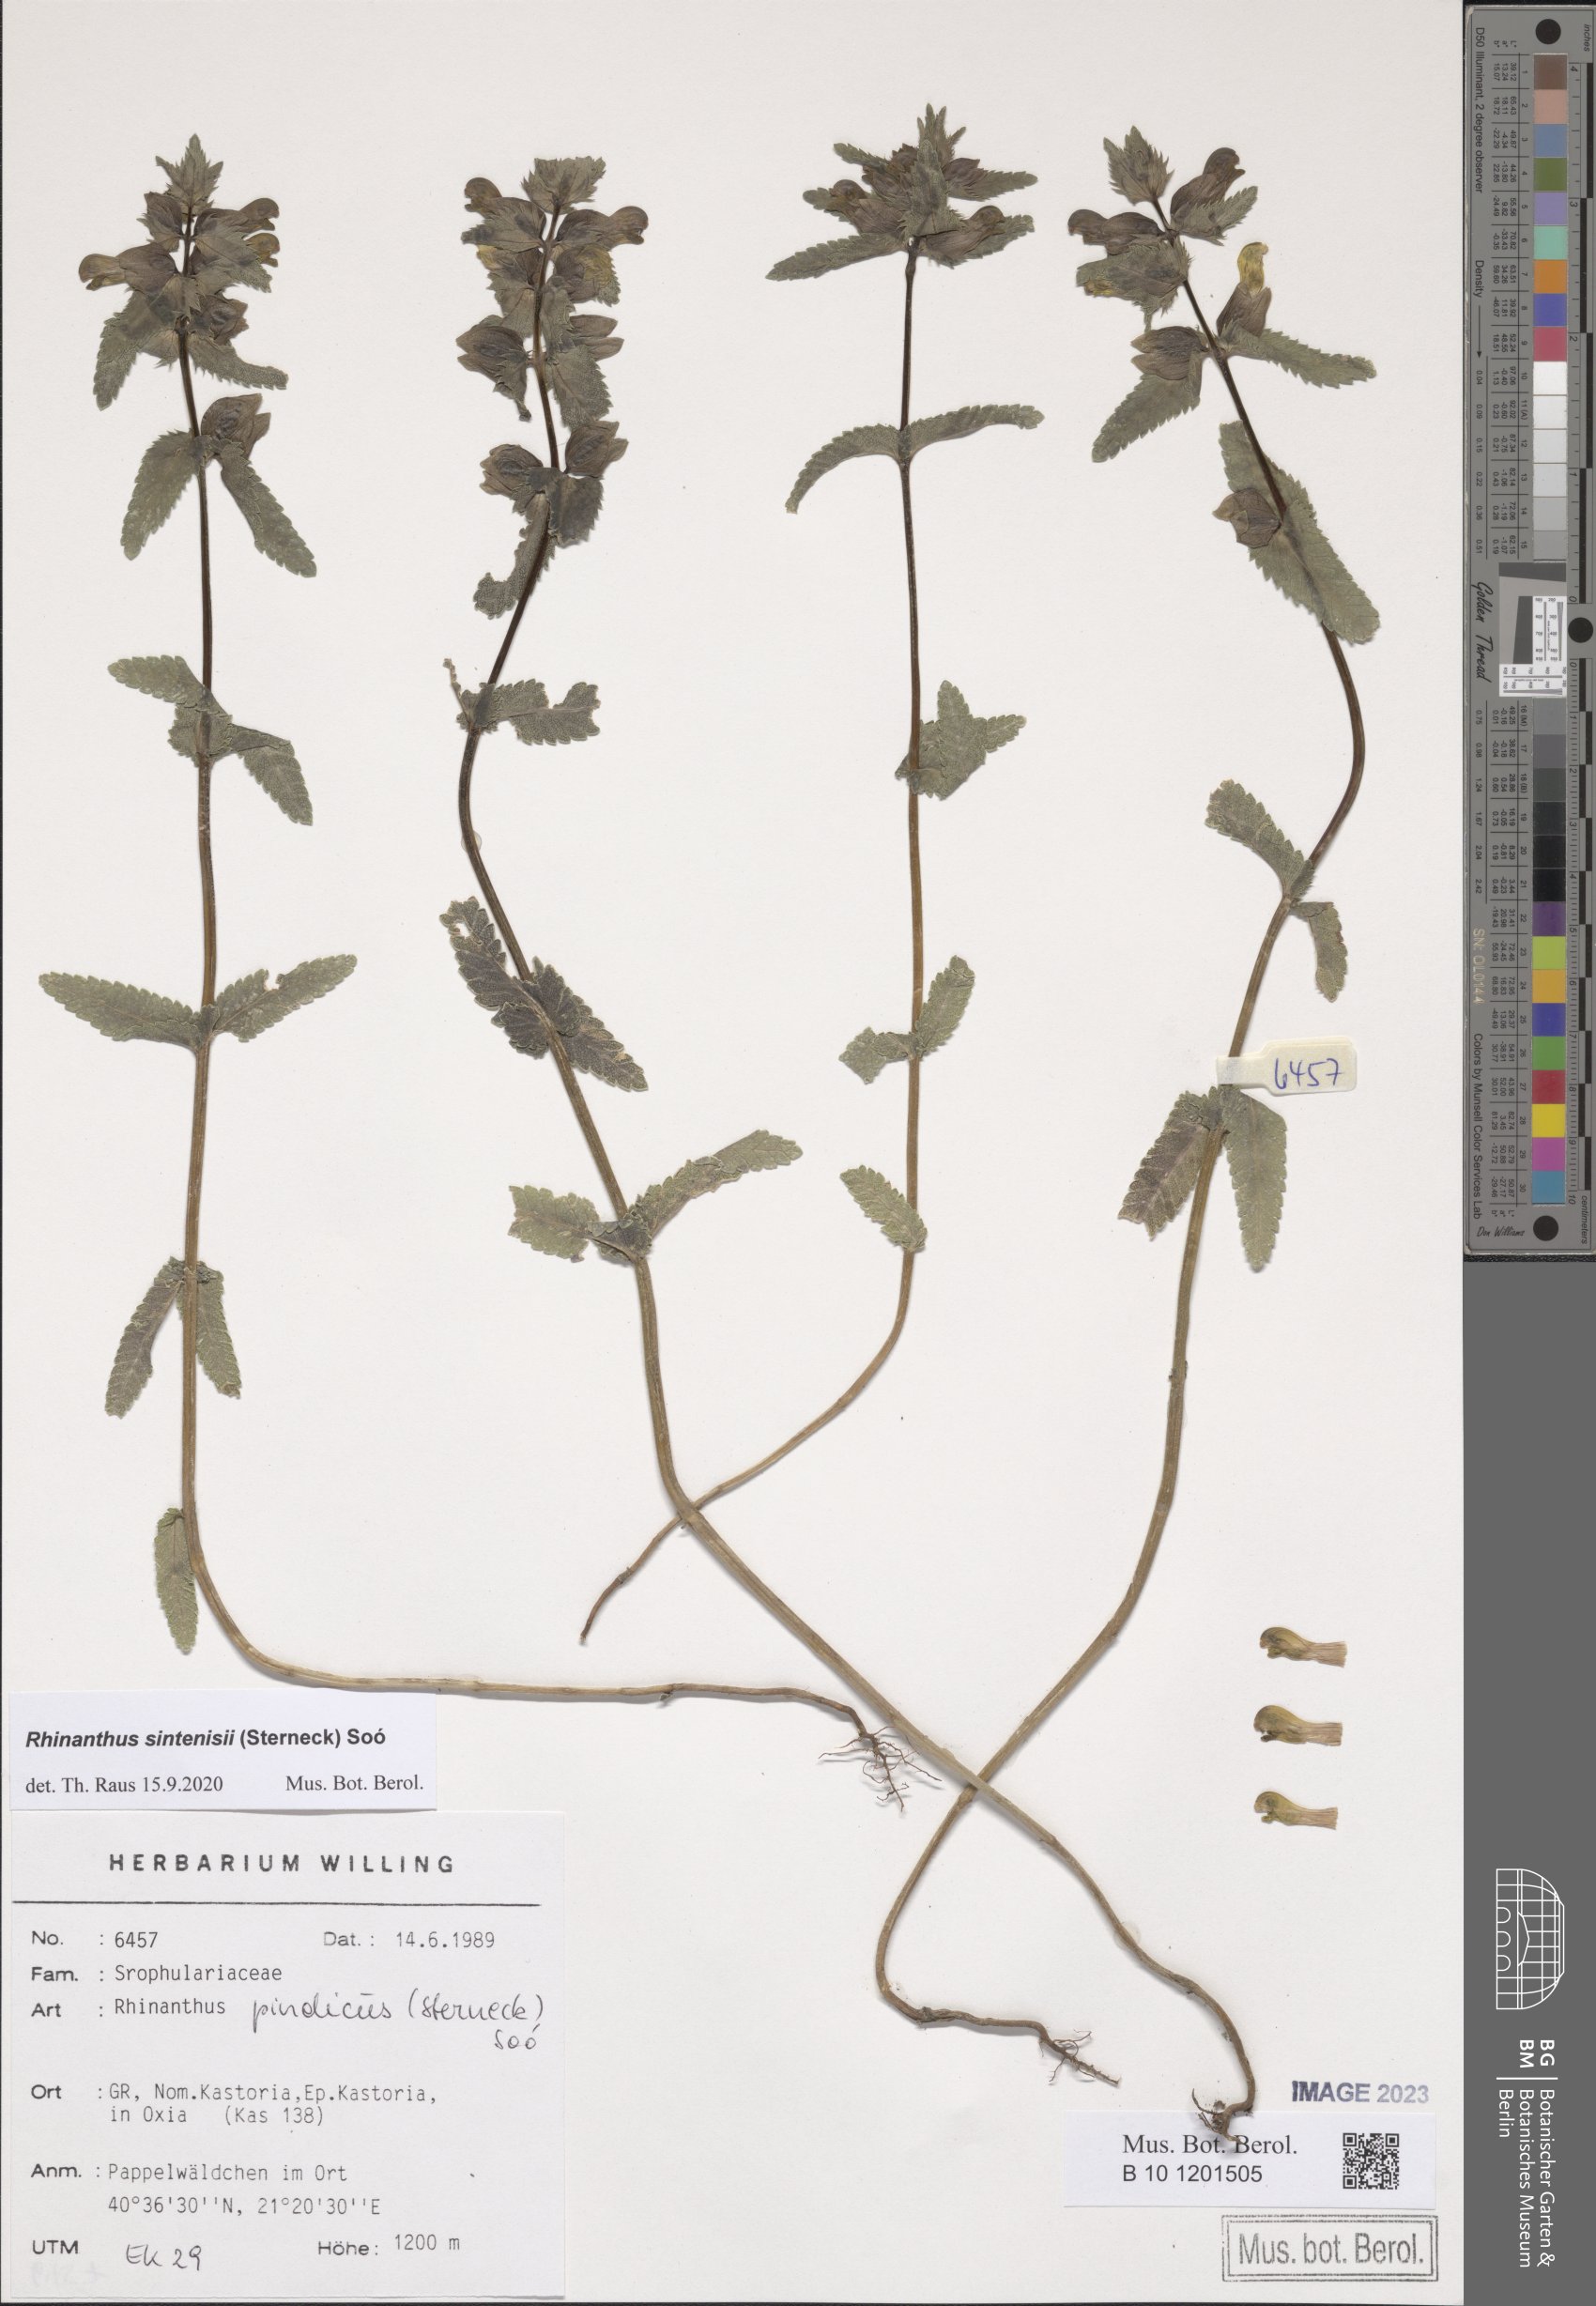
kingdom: Plantae
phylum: Tracheophyta
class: Magnoliopsida
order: Lamiales
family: Orobanchaceae
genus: Rhinanthus
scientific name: Rhinanthus sintenisii
